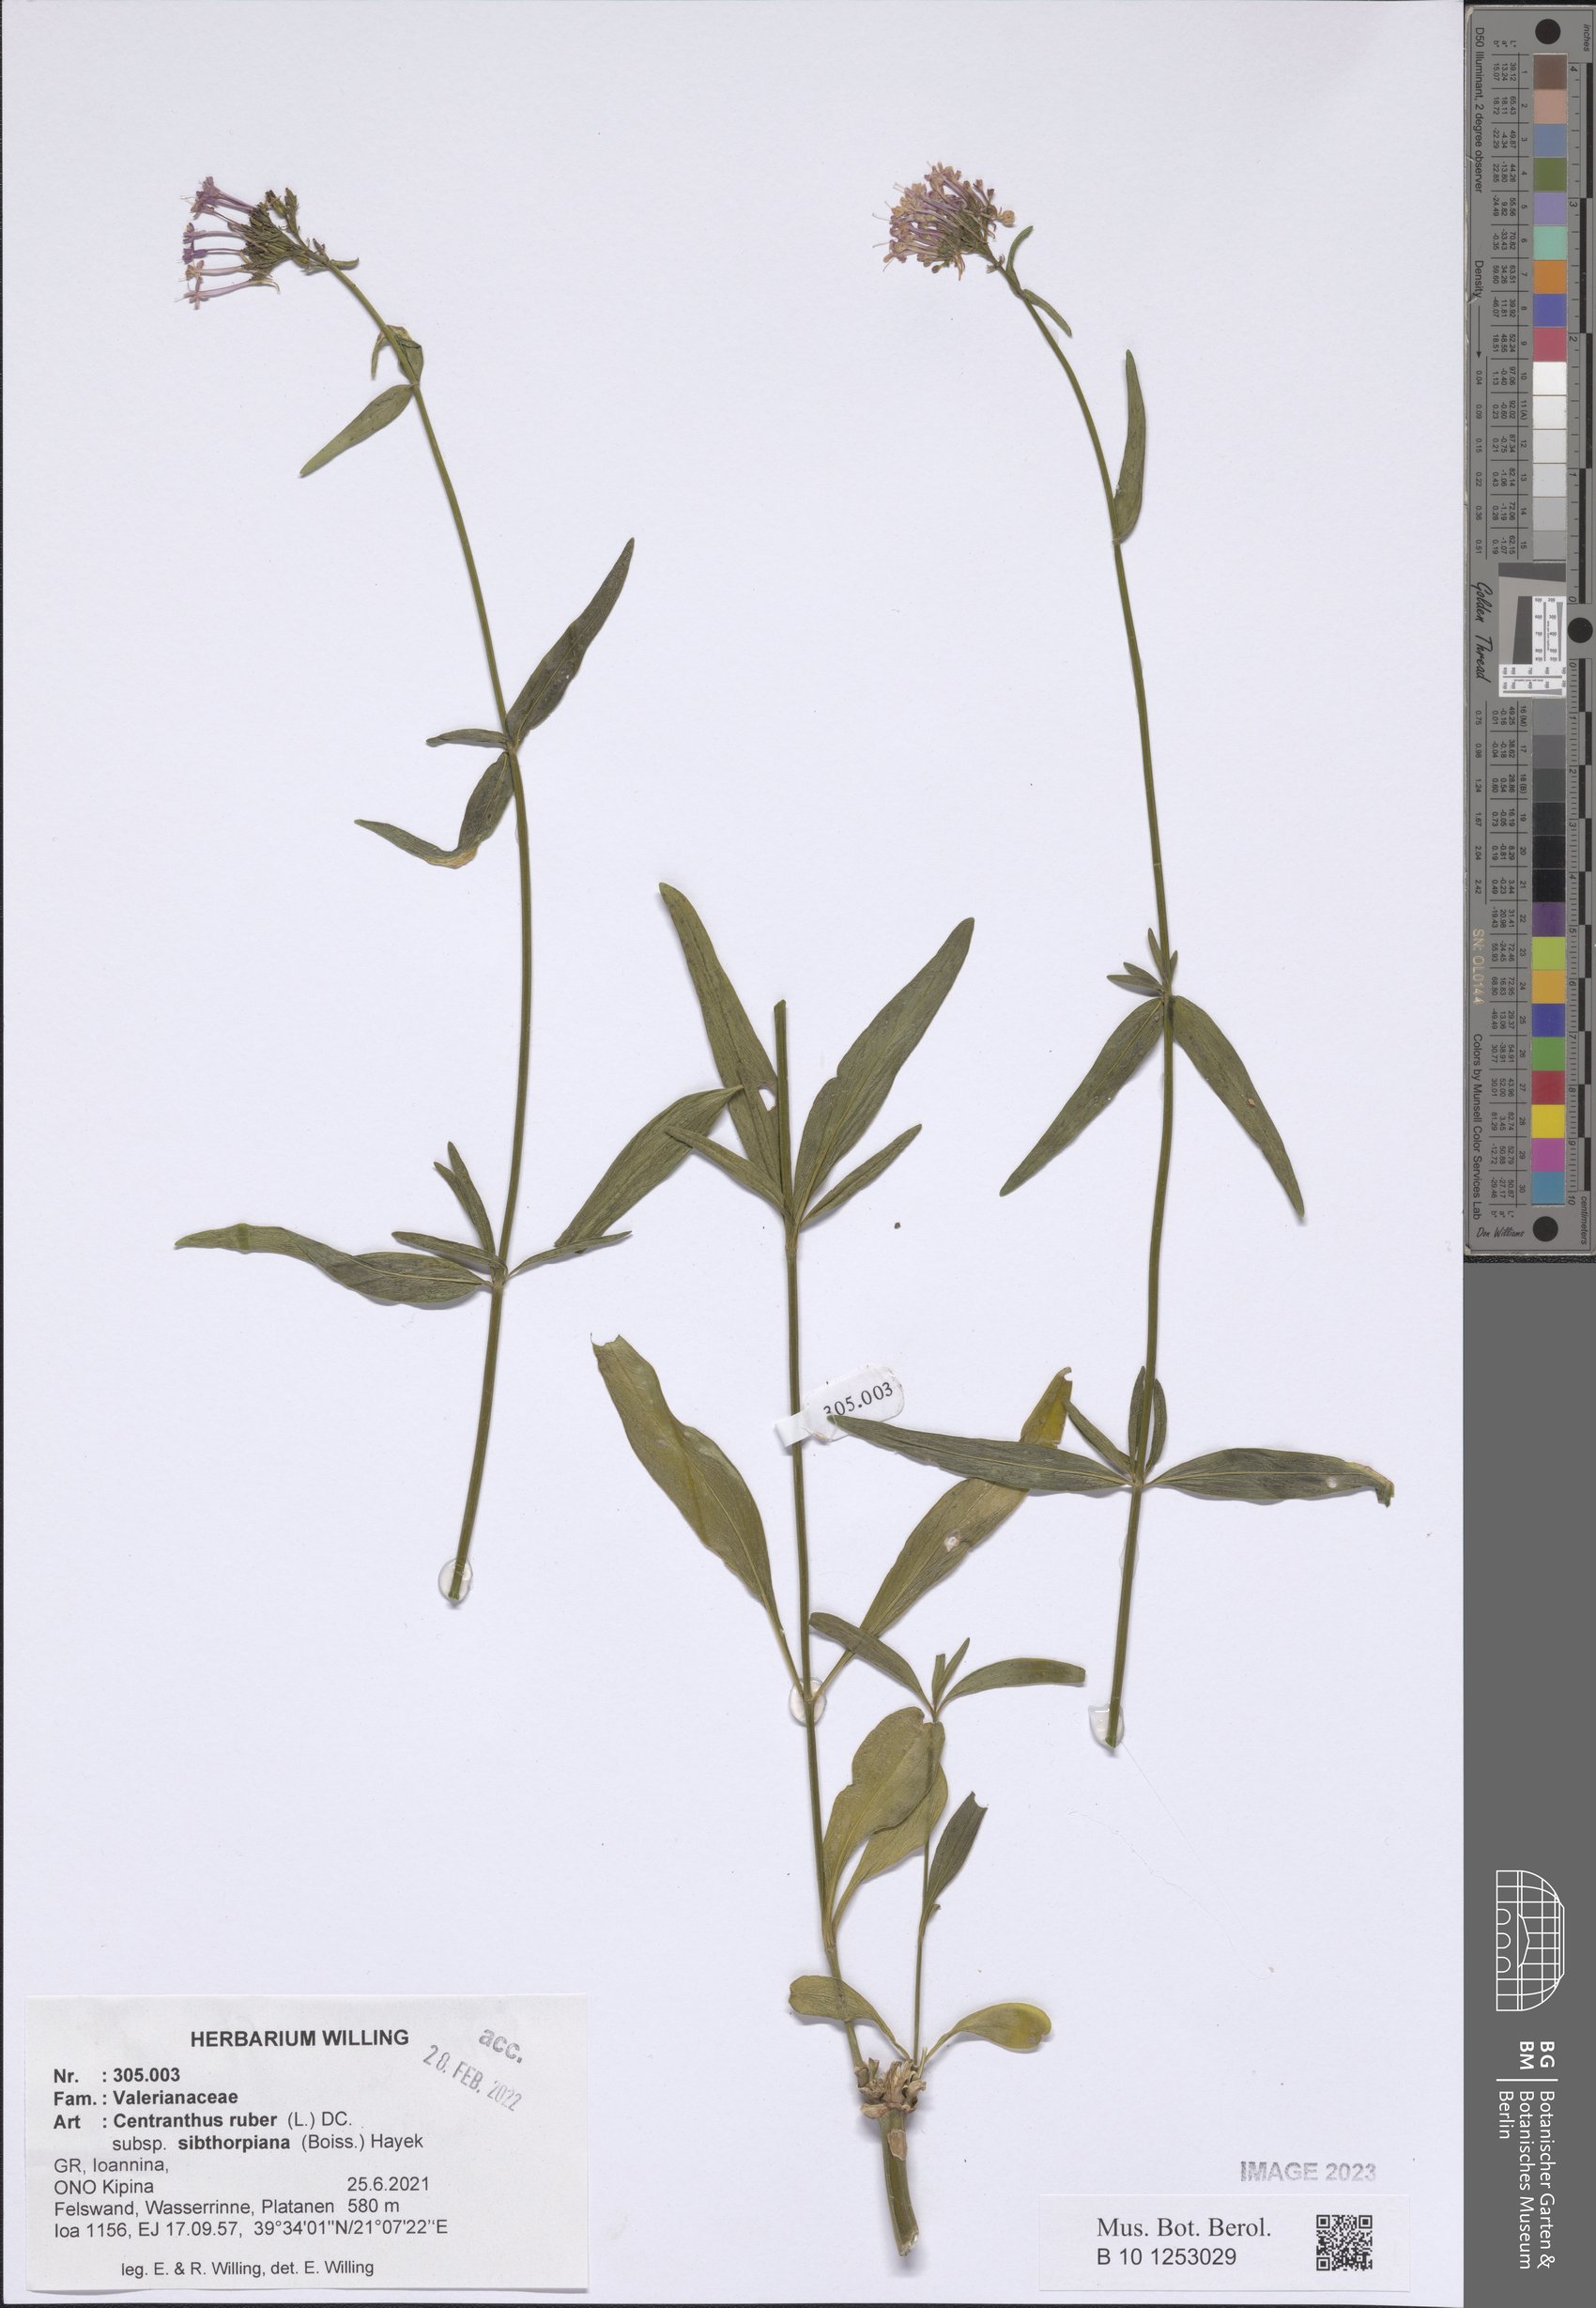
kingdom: Plantae
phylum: Tracheophyta
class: Magnoliopsida
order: Dipsacales
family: Caprifoliaceae
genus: Centranthus
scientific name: Centranthus ruber
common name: Red valerian
